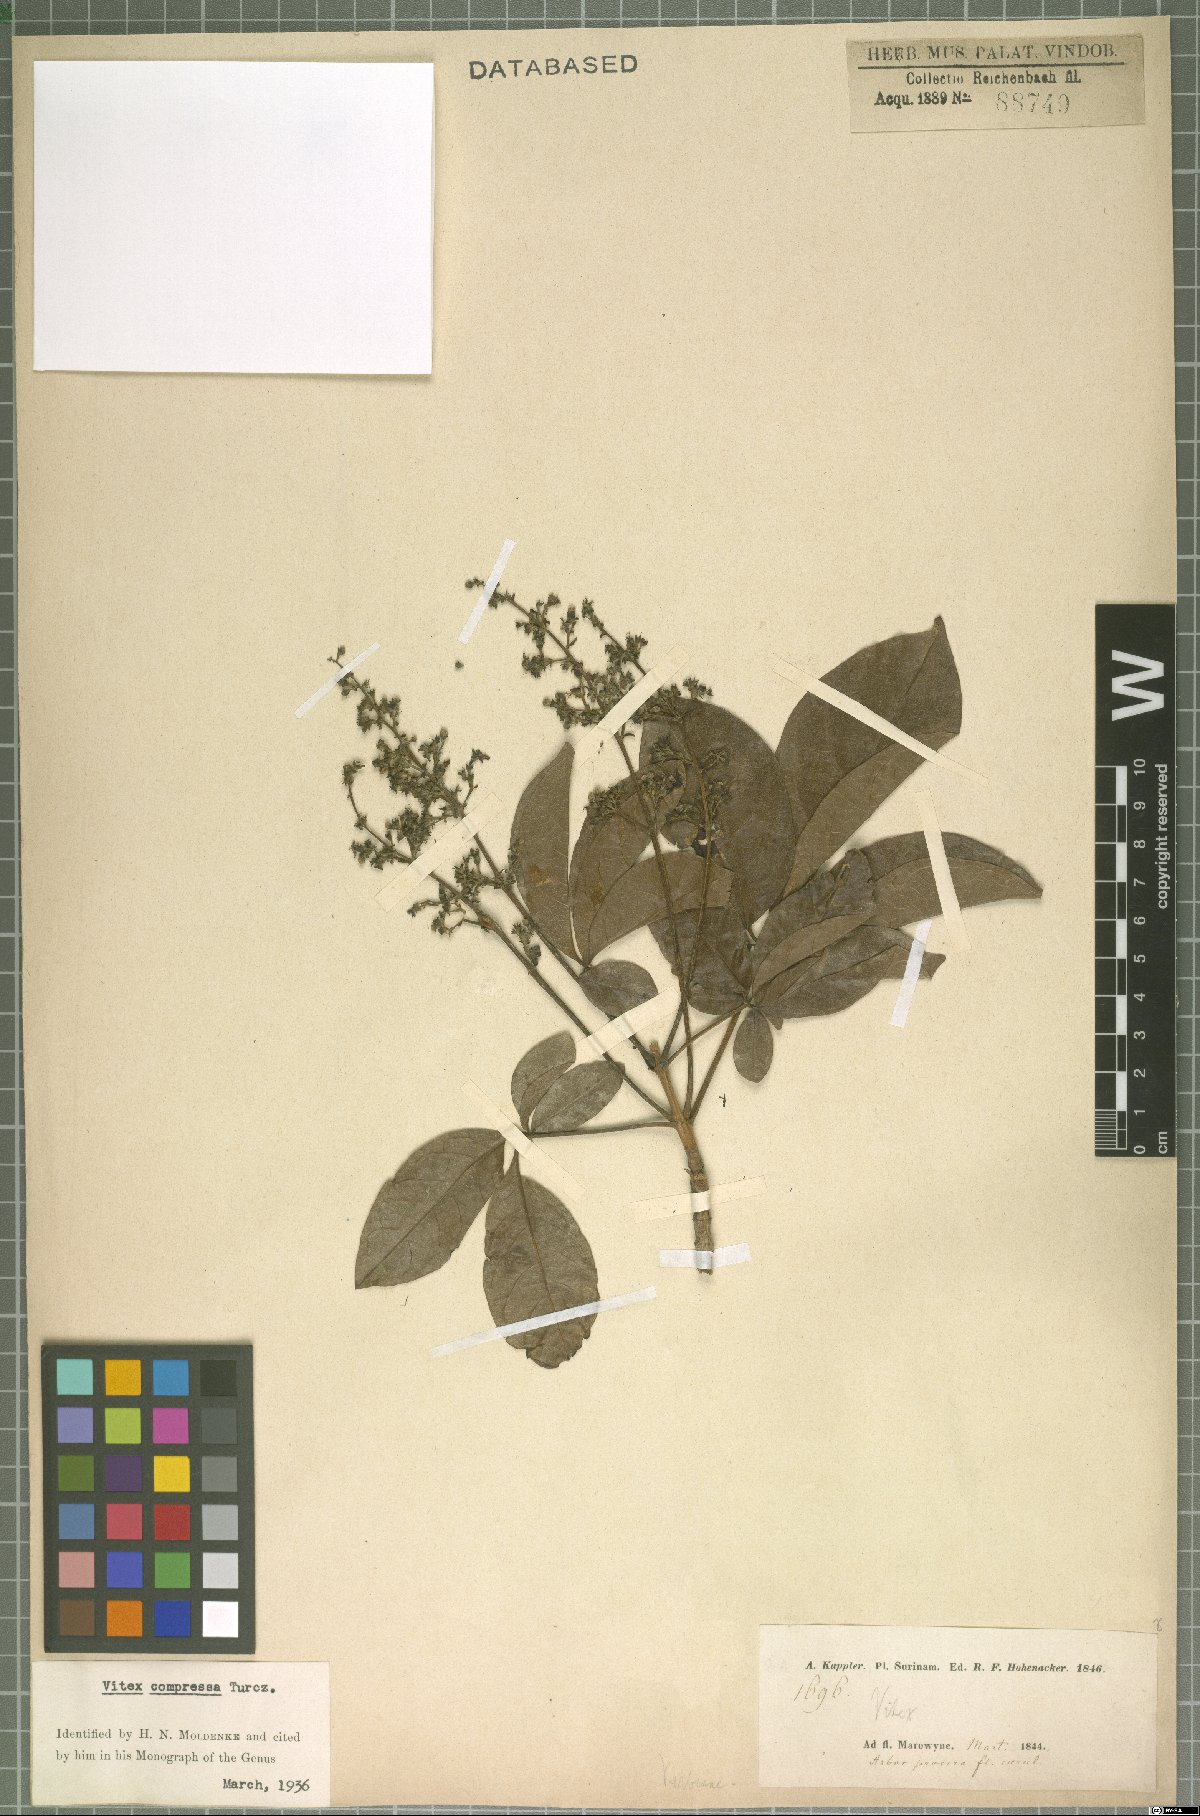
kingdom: Plantae
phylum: Tracheophyta
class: Magnoliopsida
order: Lamiales
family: Lamiaceae
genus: Vitex
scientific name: Vitex compressa
